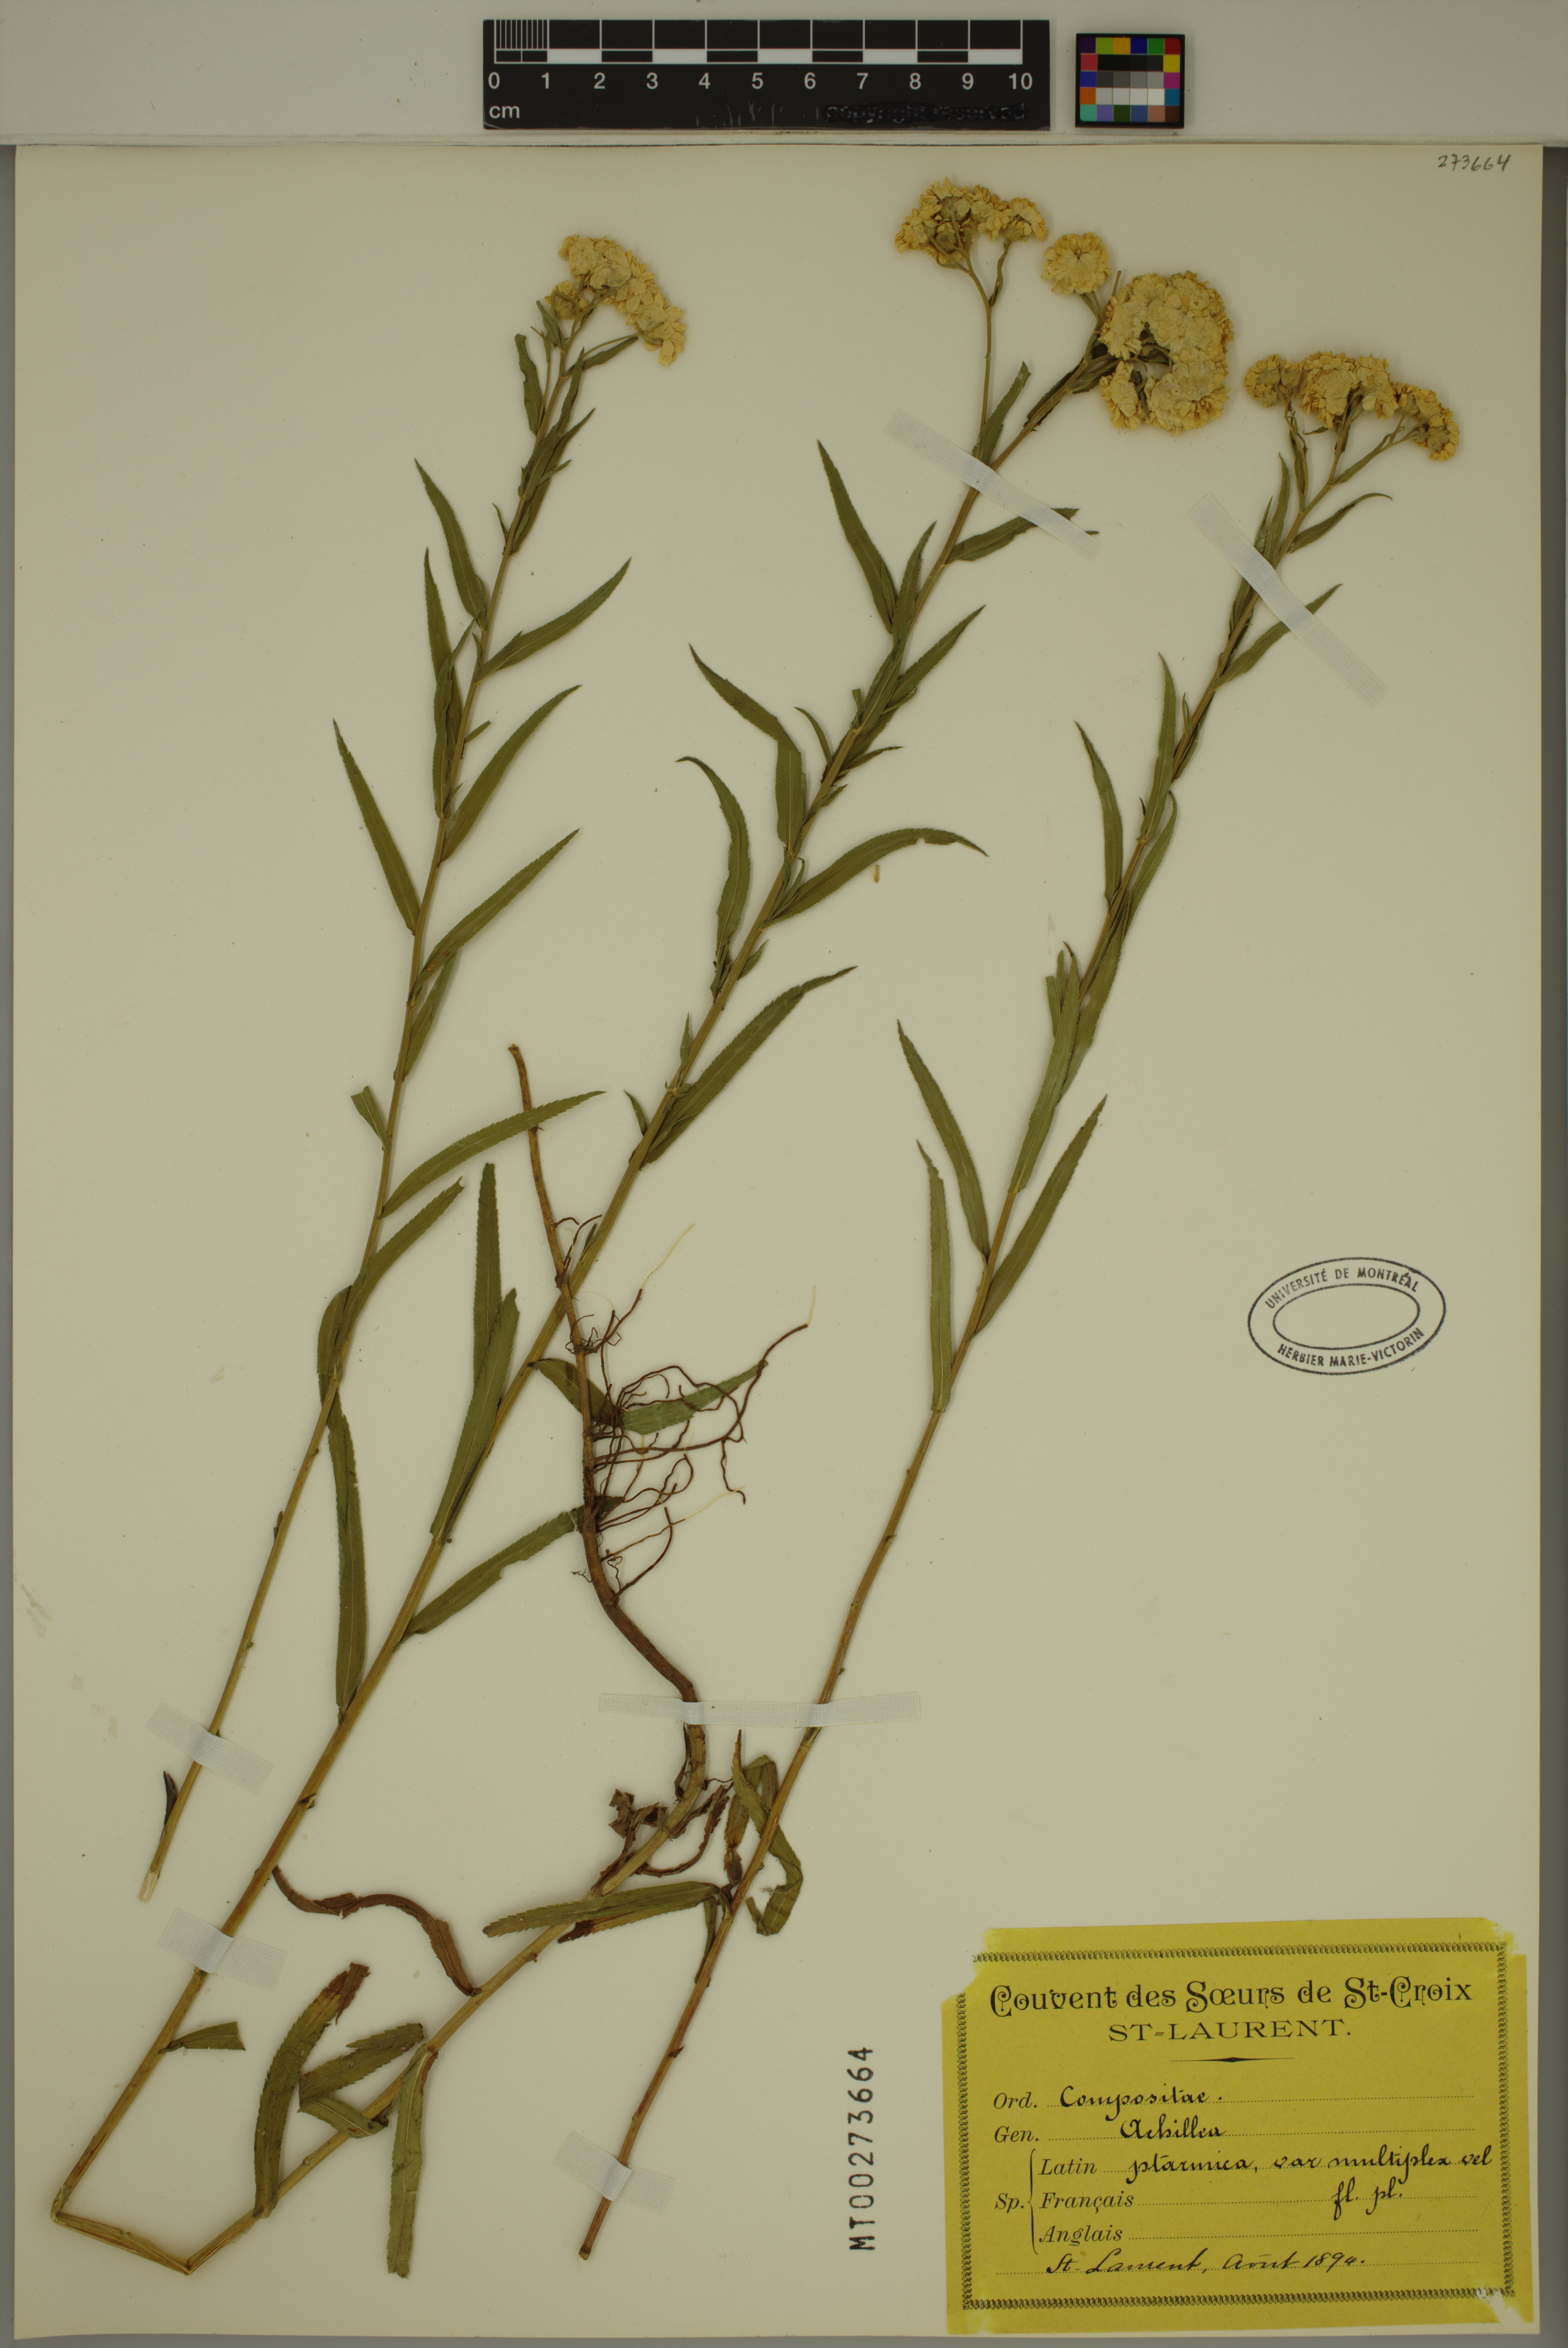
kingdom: Plantae
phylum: Tracheophyta
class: Magnoliopsida
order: Asterales
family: Asteraceae
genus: Achillea
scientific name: Achillea ptarmica
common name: Sneezeweed
